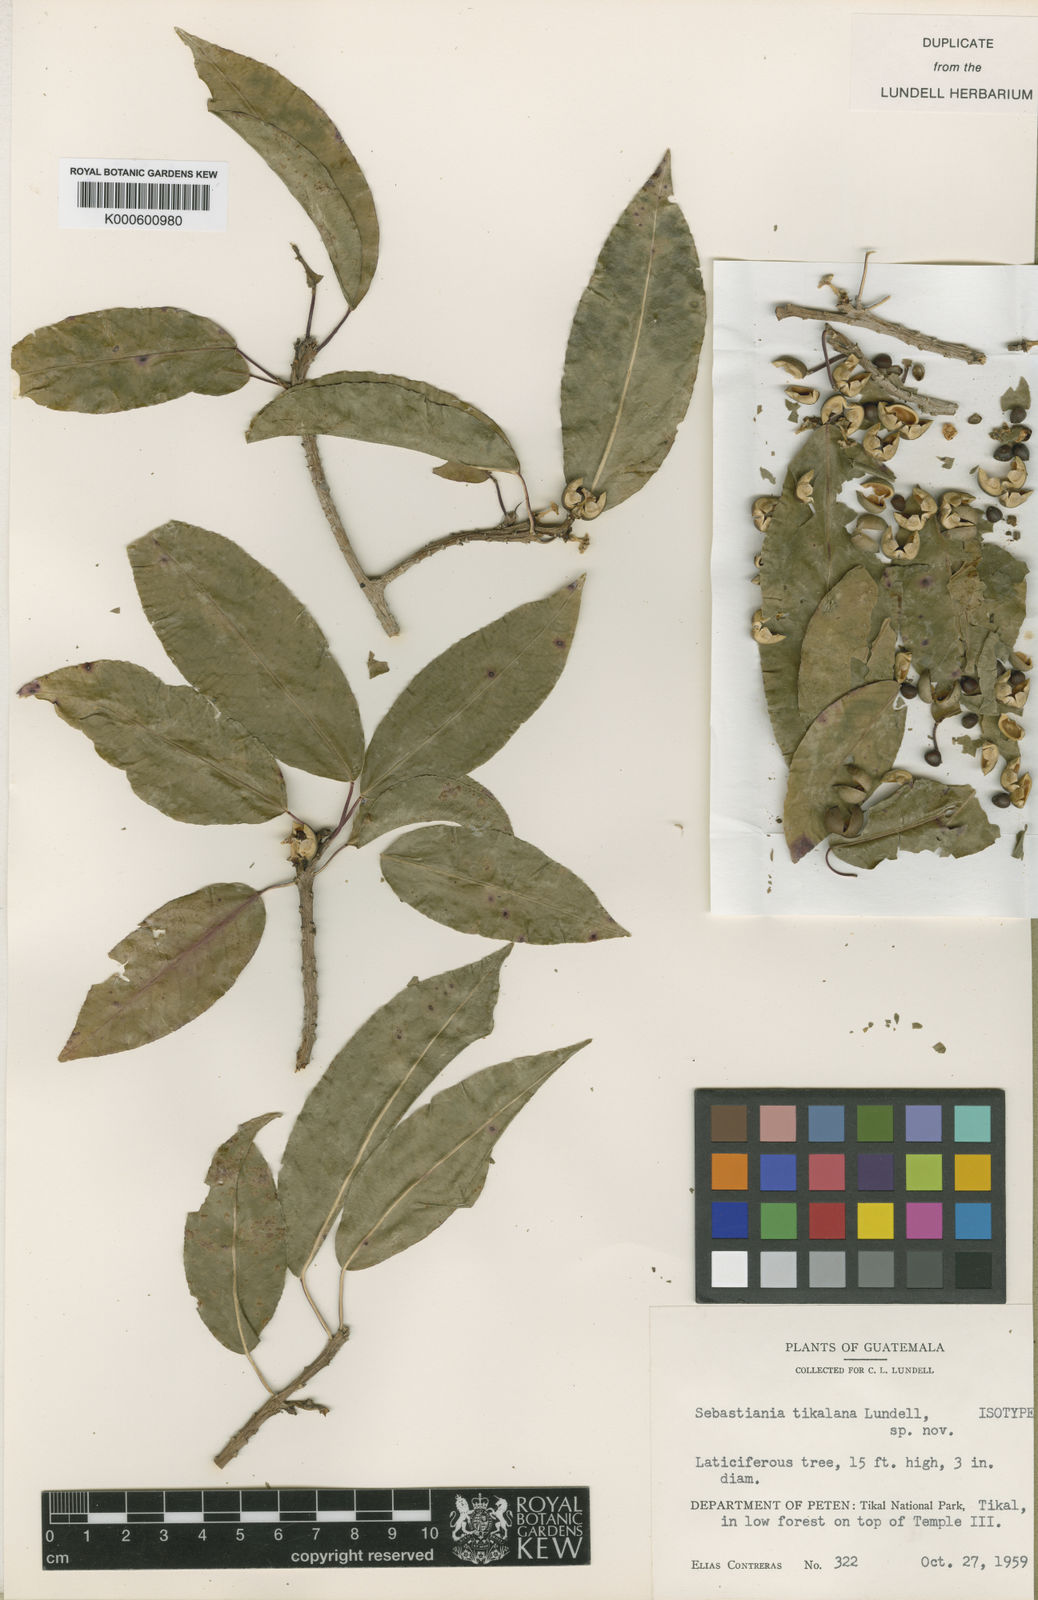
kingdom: Plantae
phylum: Tracheophyta
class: Magnoliopsida
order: Malpighiales
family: Euphorbiaceae
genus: Pleradenophora
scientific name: Pleradenophora tikalana
